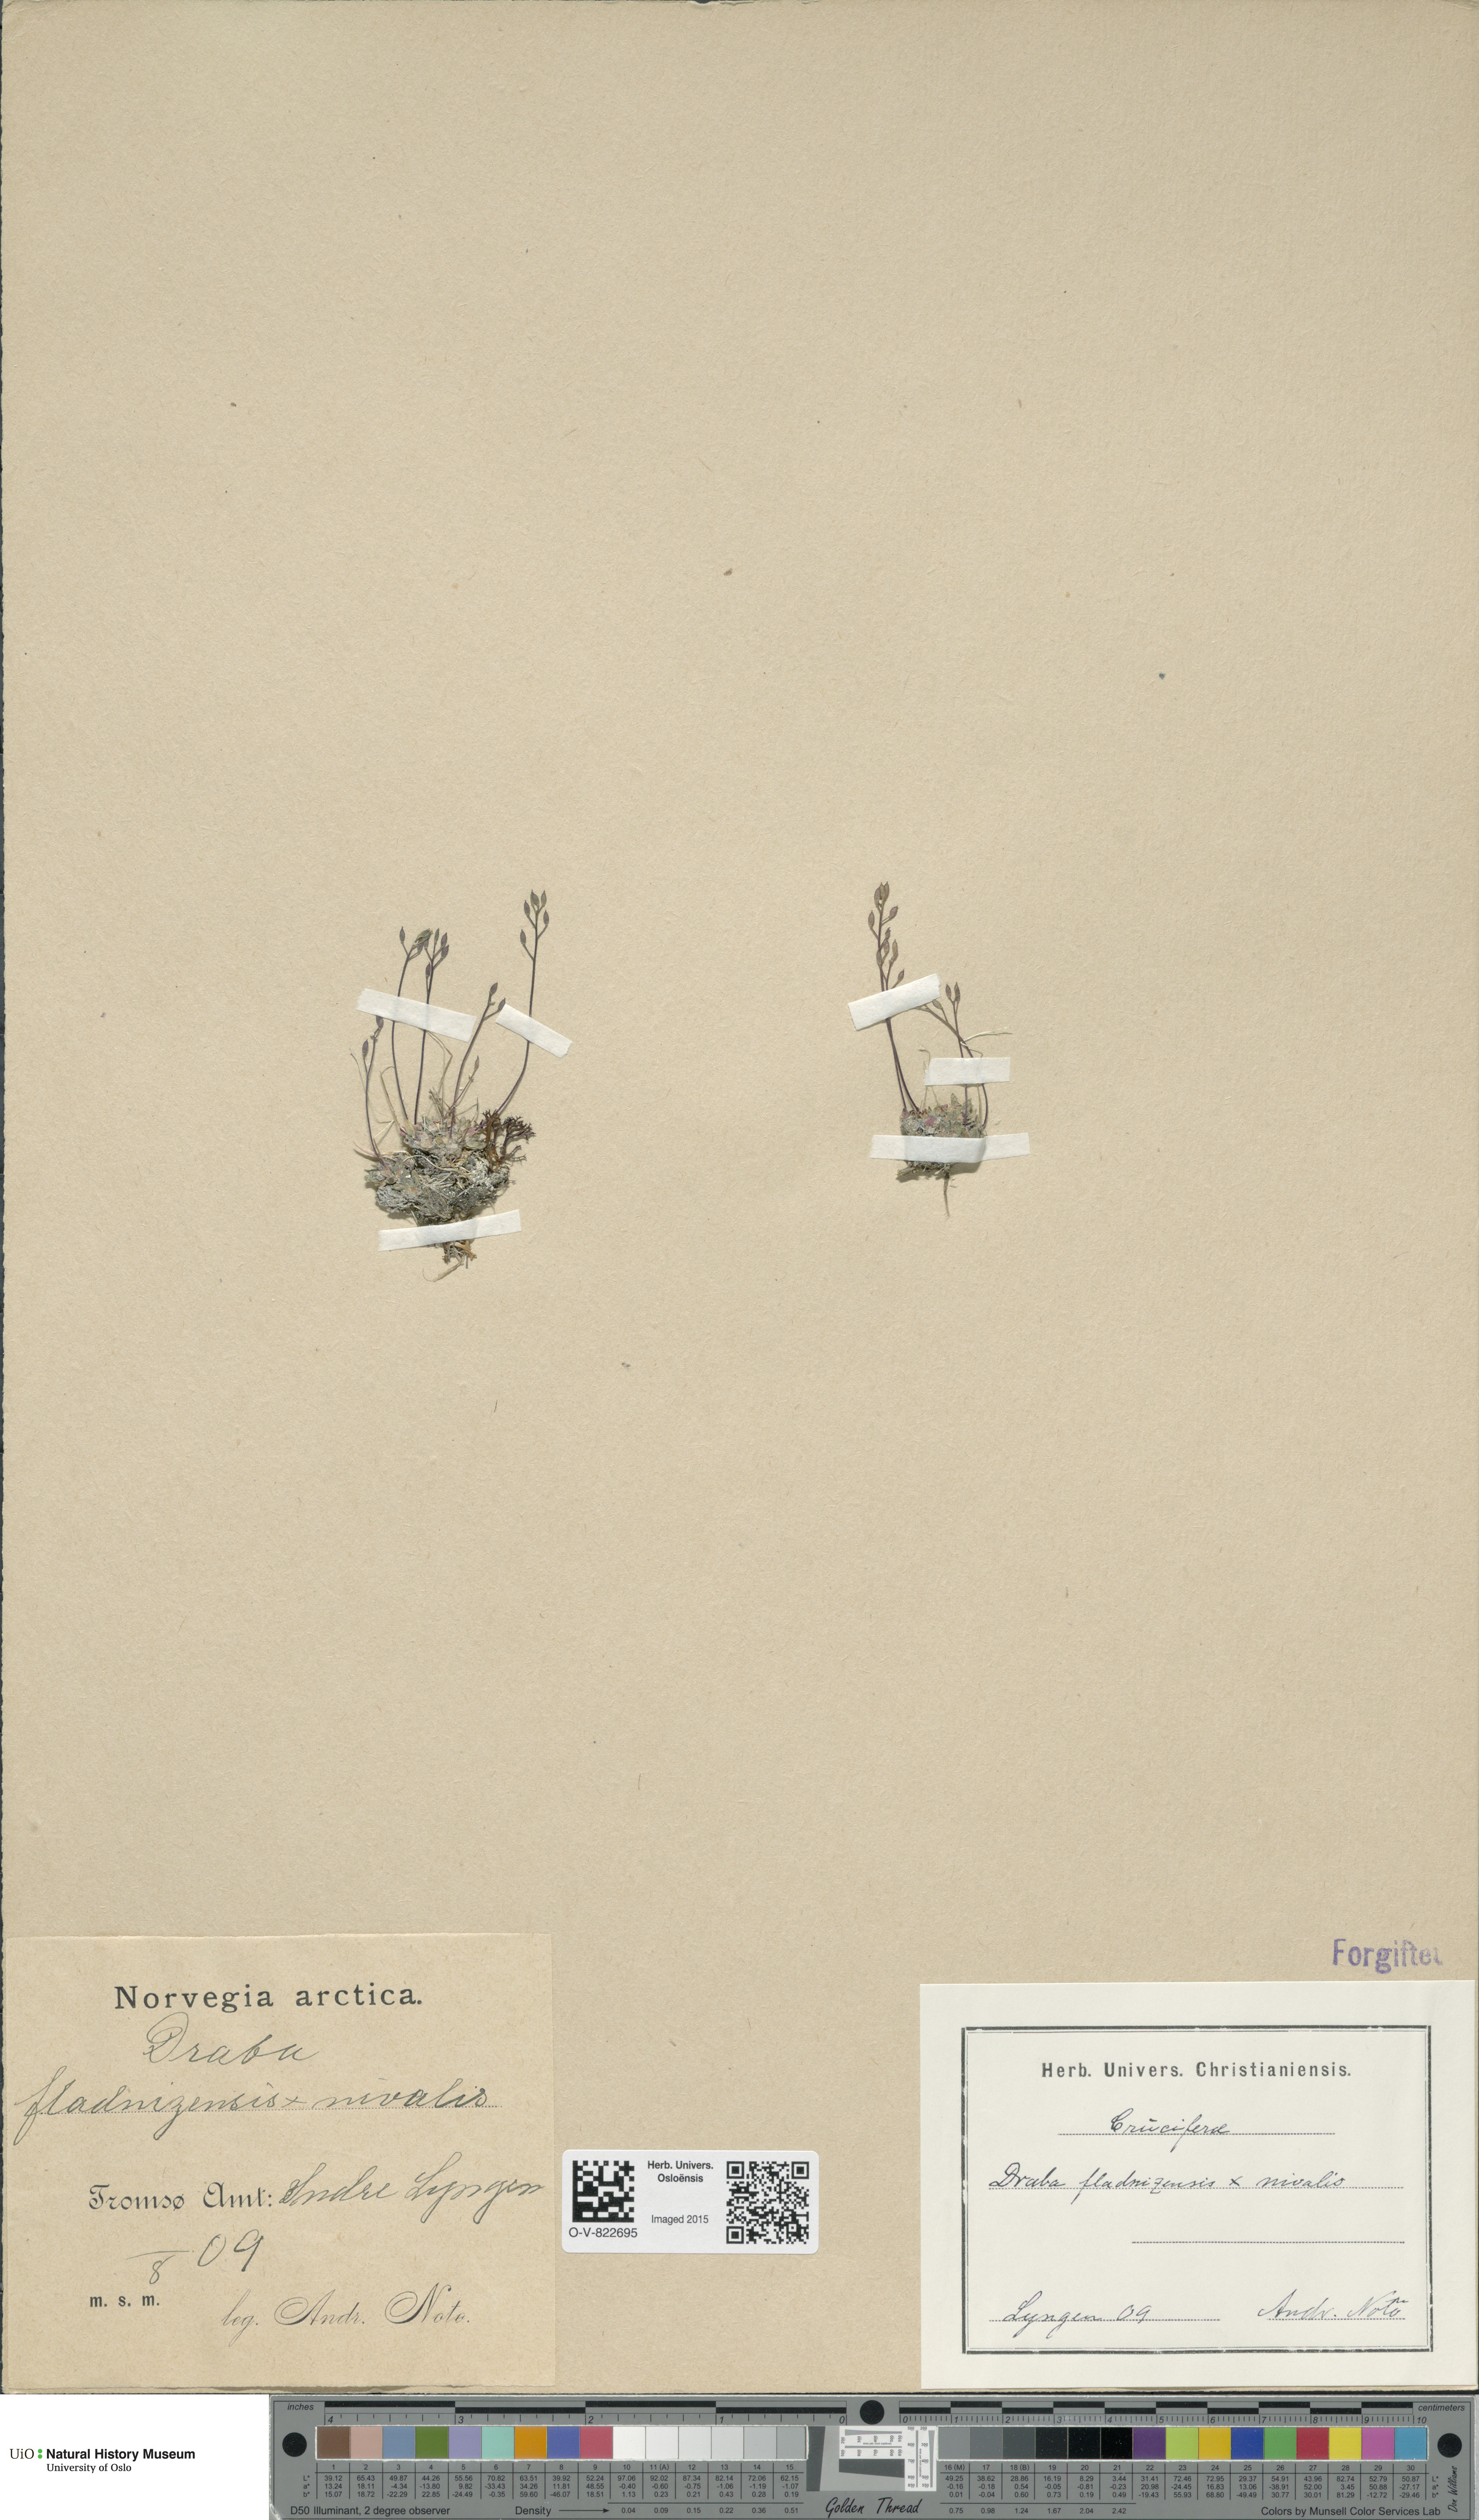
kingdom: Plantae
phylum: Tracheophyta
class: Magnoliopsida
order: Brassicales
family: Brassicaceae
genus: Draba
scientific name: Draba
